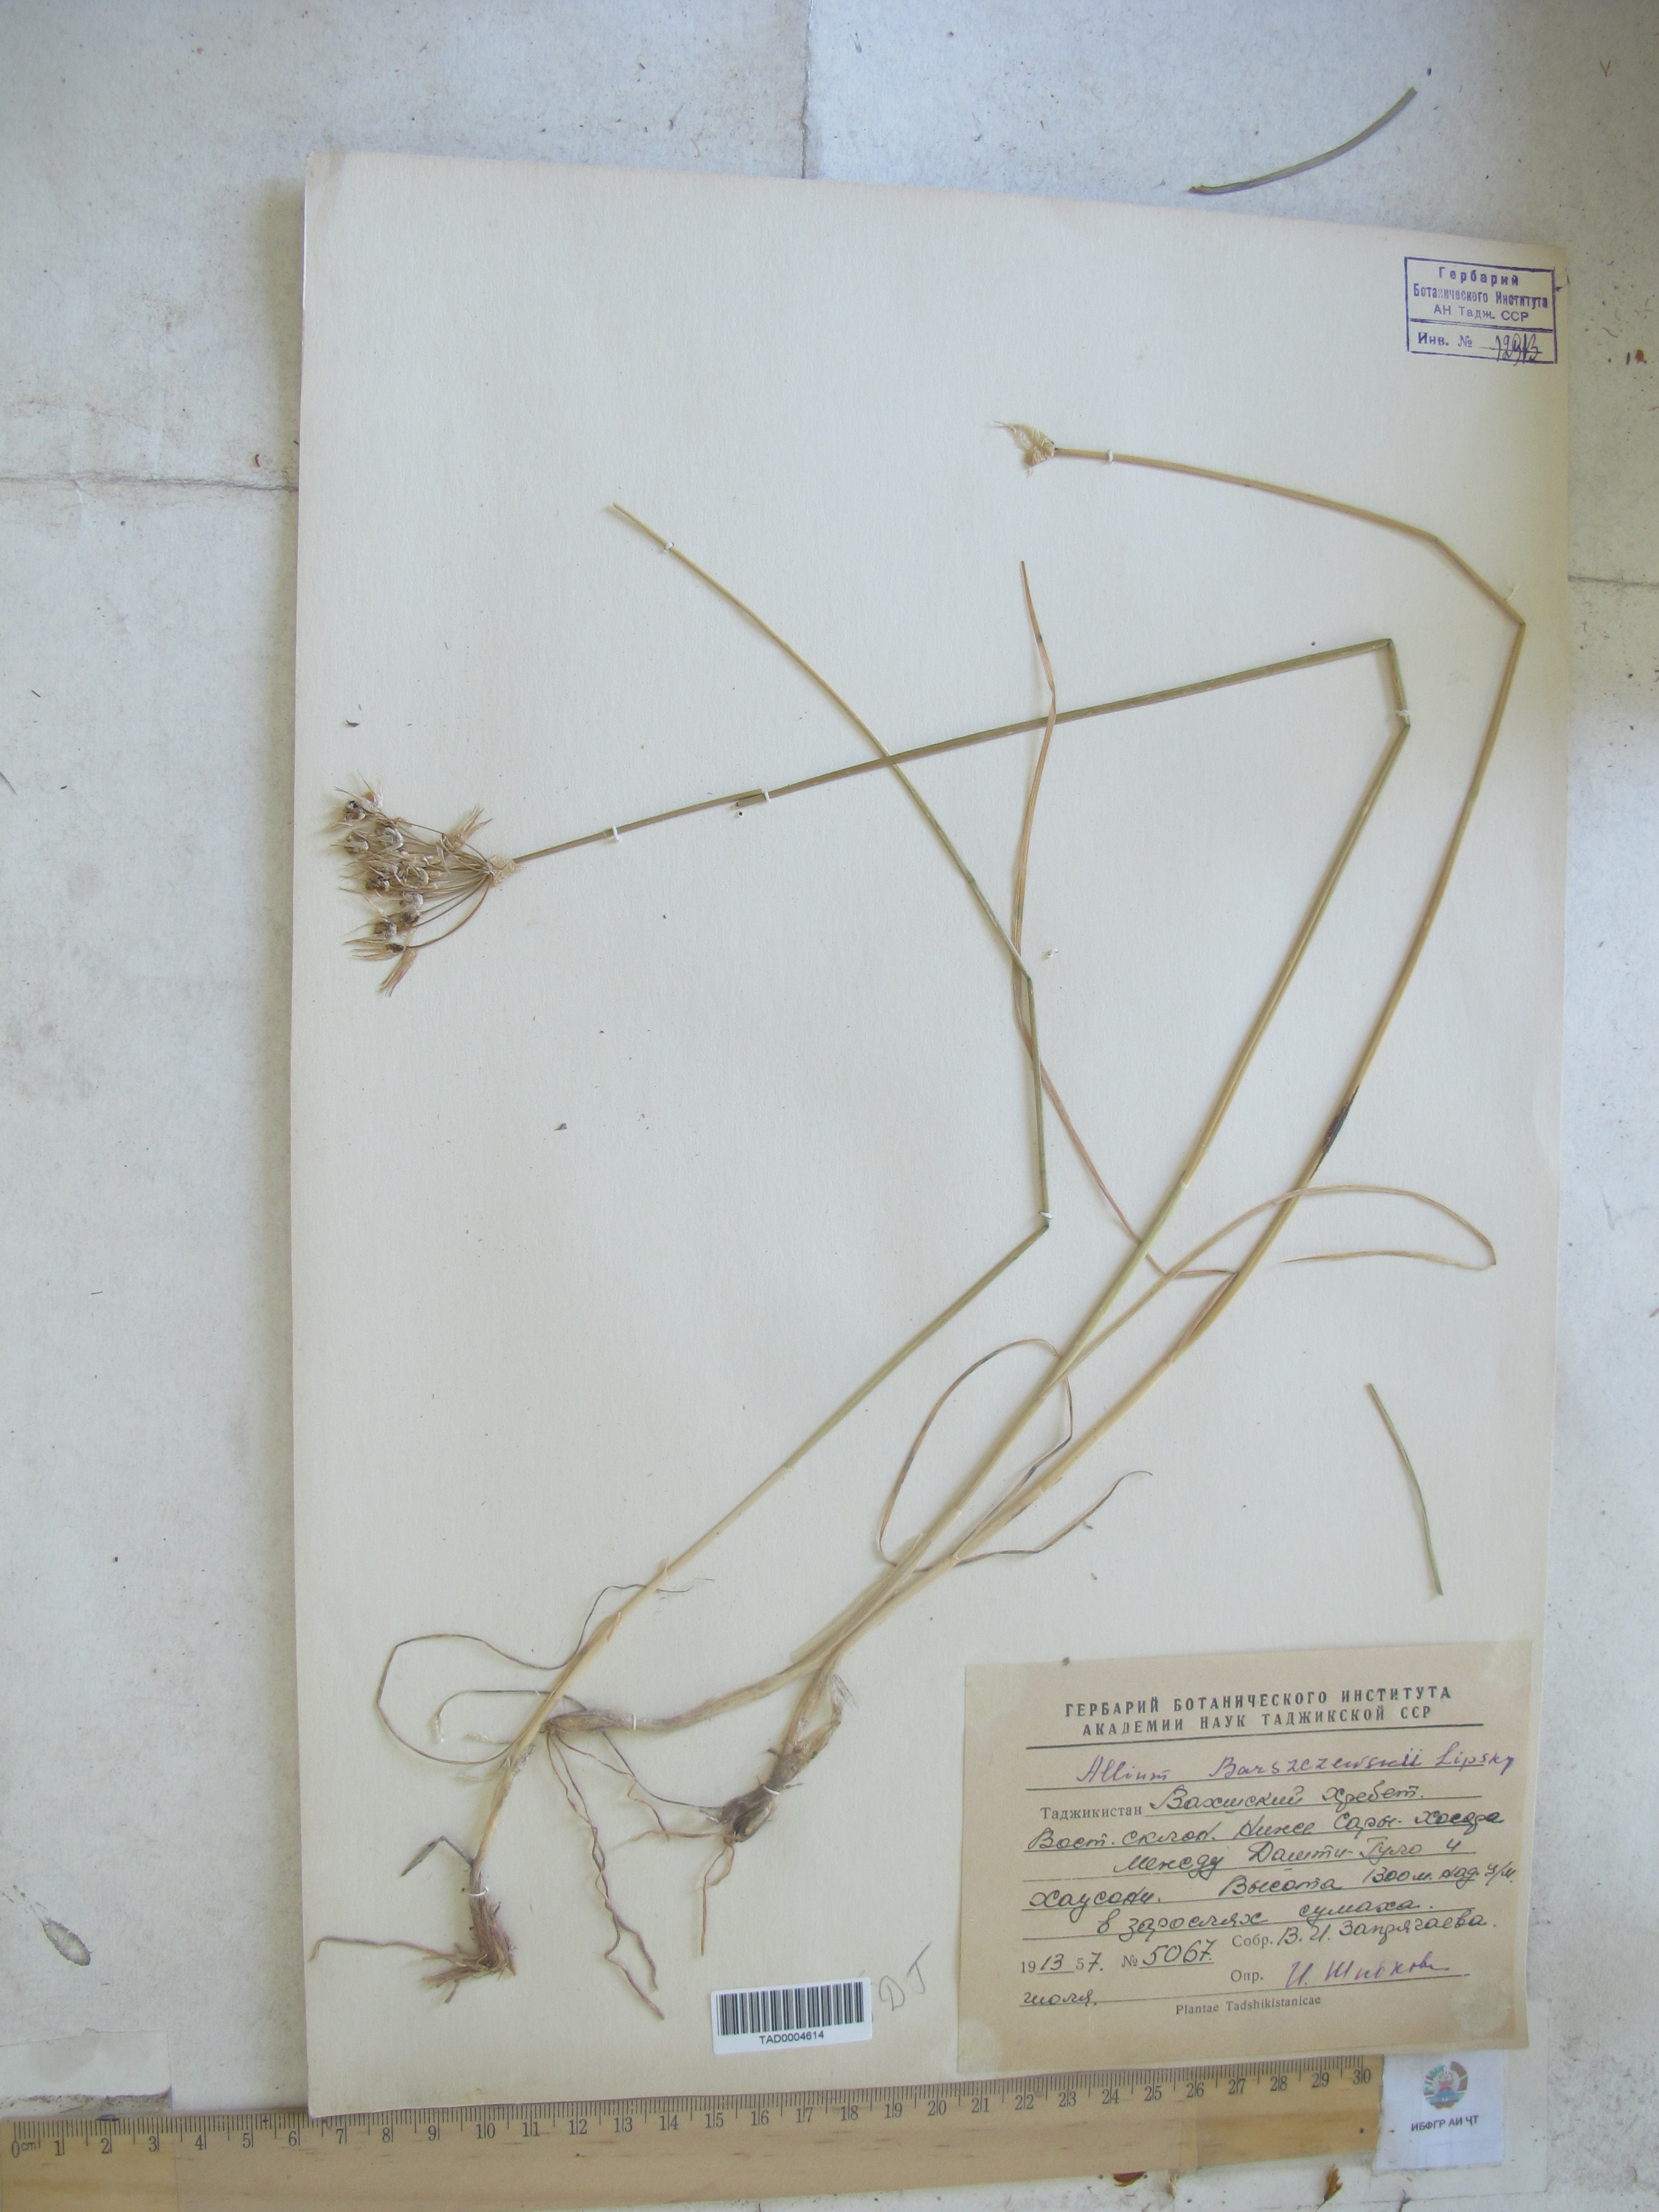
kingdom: Plantae
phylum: Tracheophyta
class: Liliopsida
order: Asparagales
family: Amaryllidaceae
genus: Allium
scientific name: Allium barsczewskii
